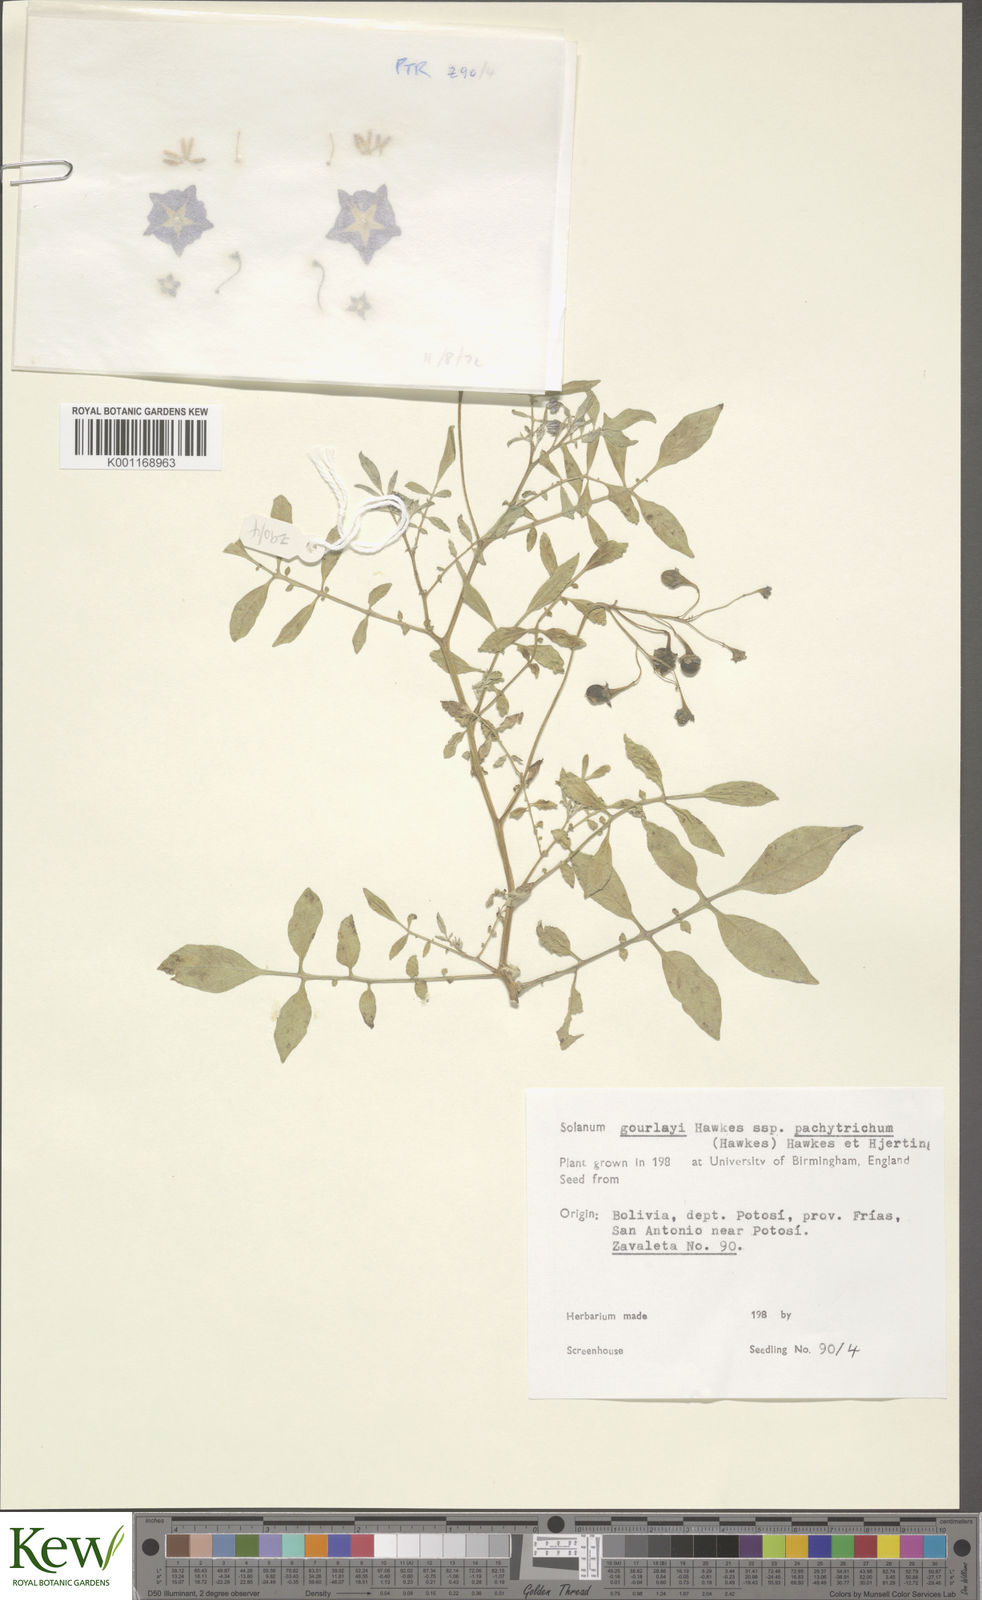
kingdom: Plantae
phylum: Tracheophyta
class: Magnoliopsida
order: Solanales
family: Solanaceae
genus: Solanum
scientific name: Solanum brevicaule
